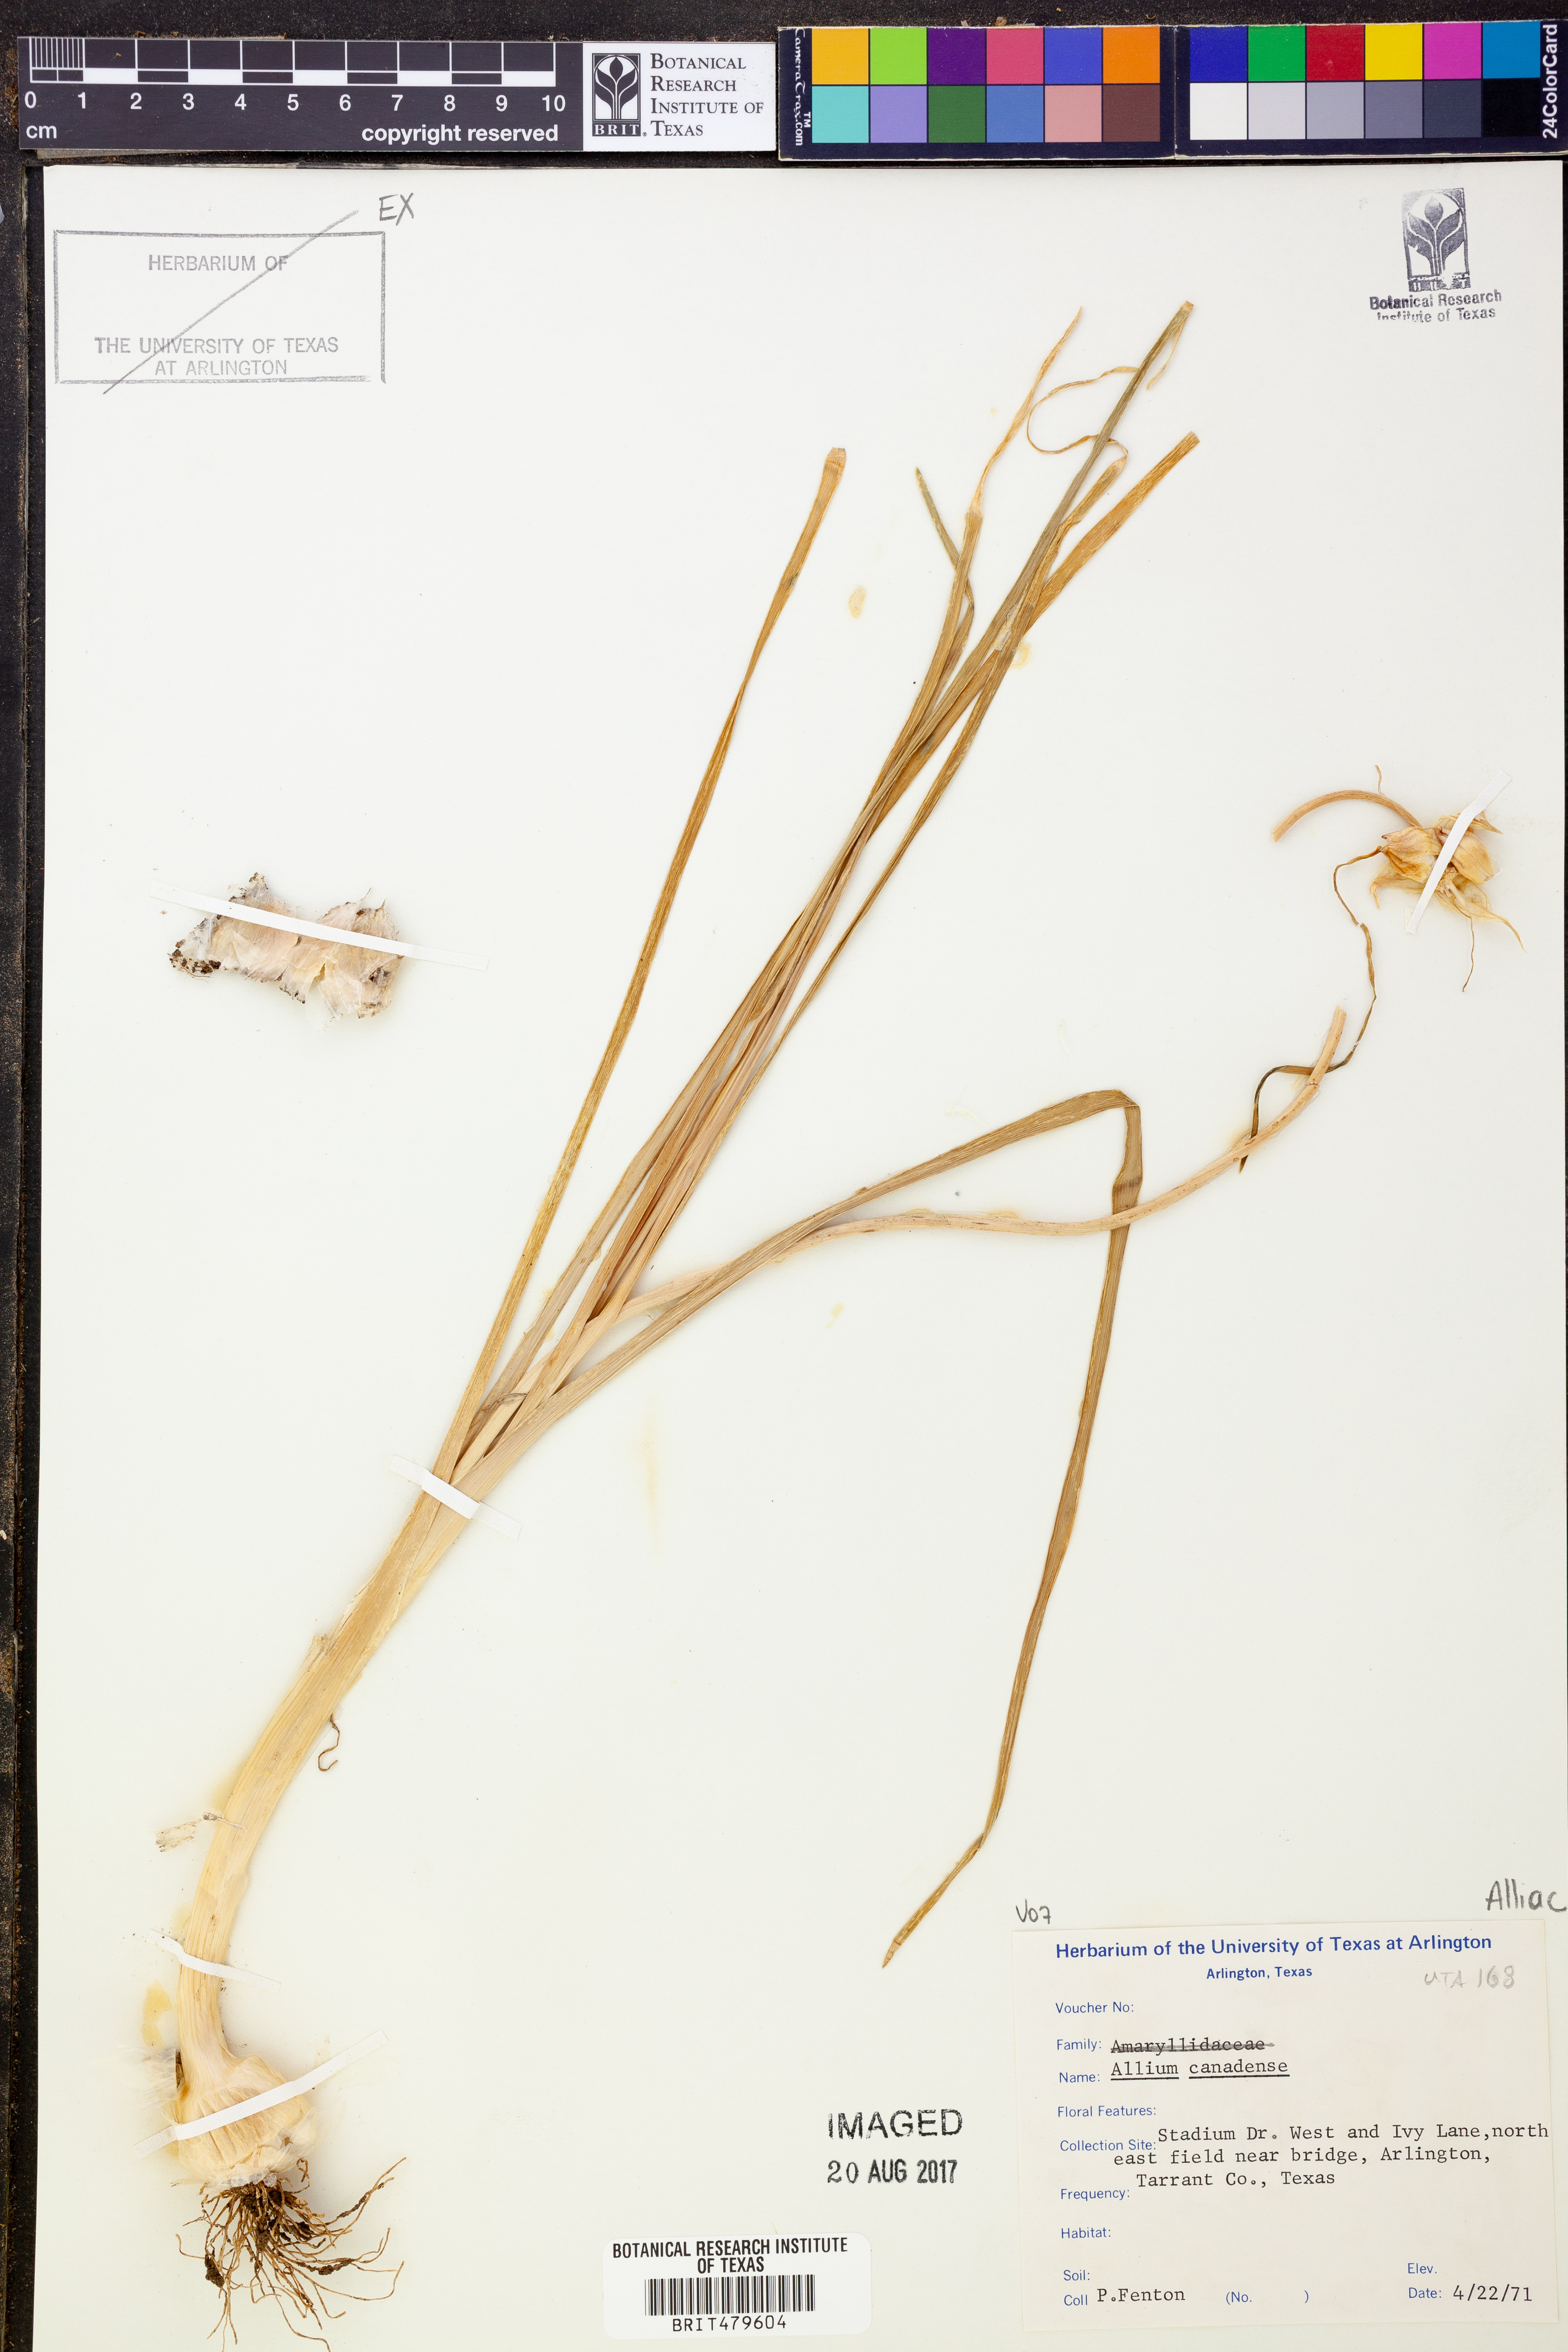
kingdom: Plantae
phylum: Tracheophyta
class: Liliopsida
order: Asparagales
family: Amaryllidaceae
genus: Allium
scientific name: Allium canadense
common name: Meadow garlic
